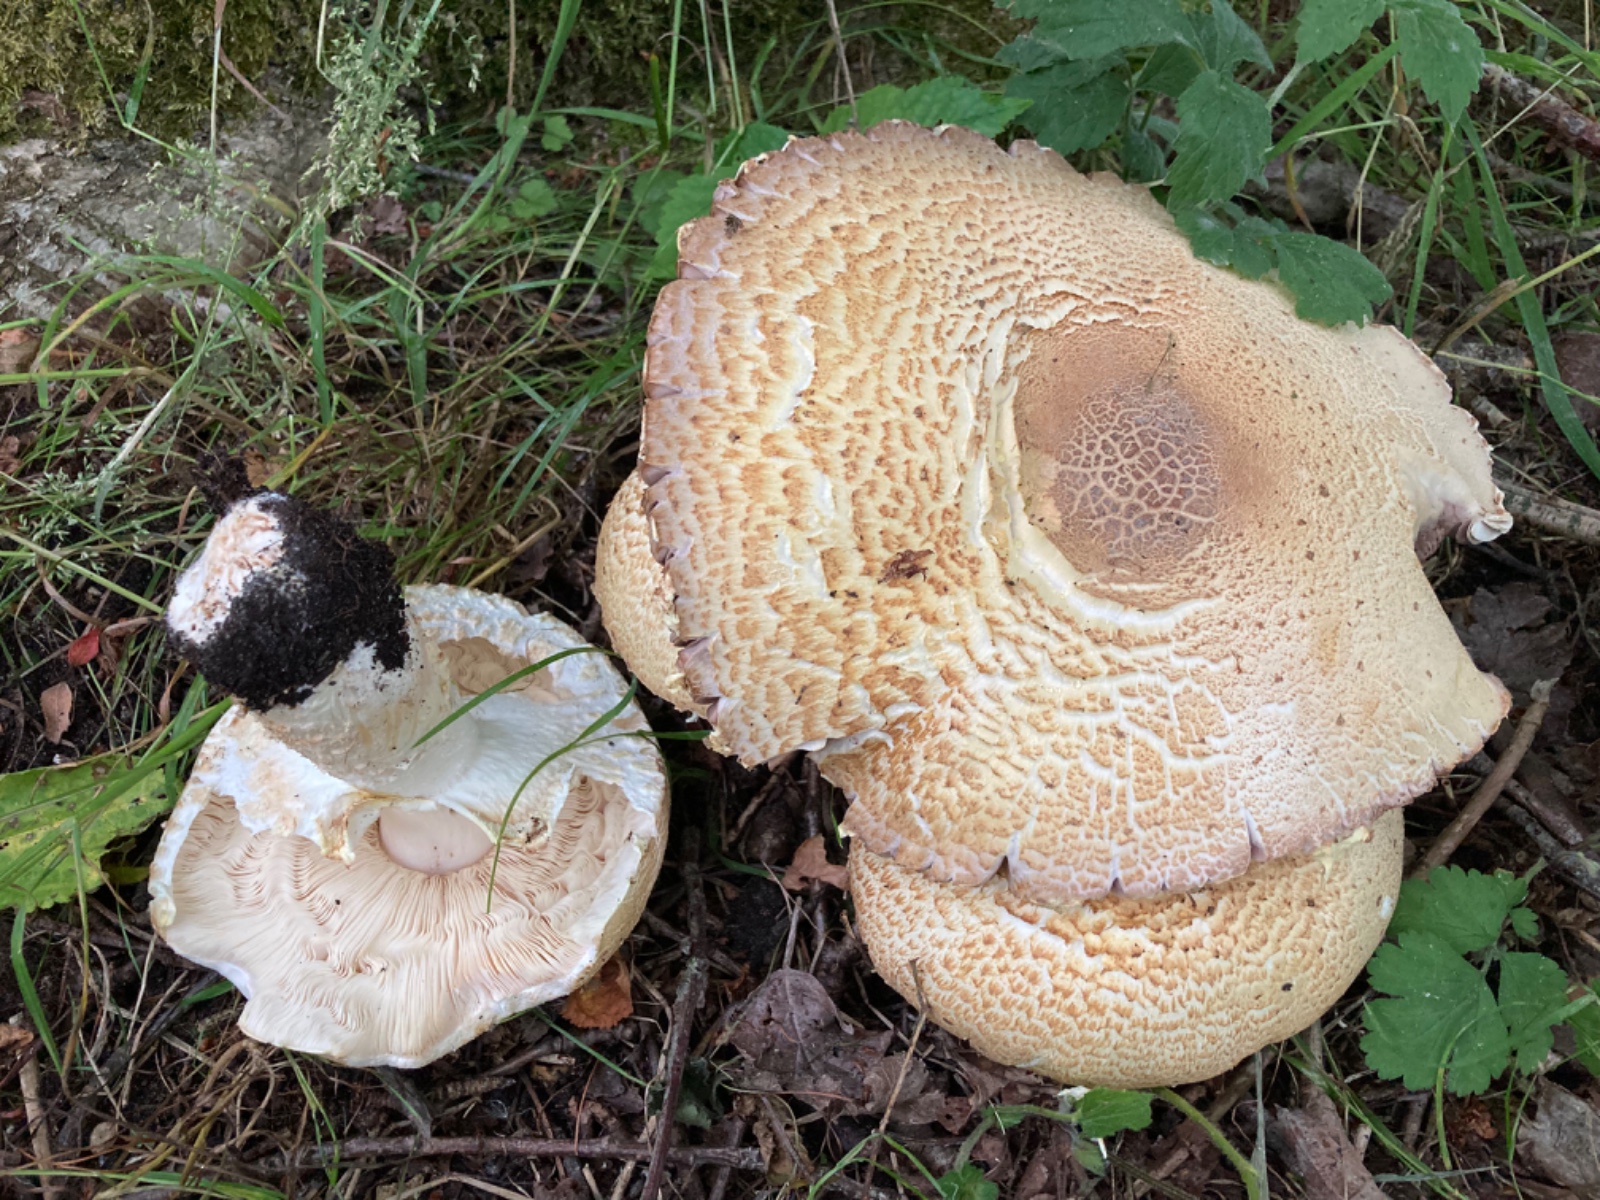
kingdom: Fungi
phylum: Basidiomycota
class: Agaricomycetes
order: Agaricales
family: Agaricaceae
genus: Agaricus
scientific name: Agaricus augustus
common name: prægtig champignon
